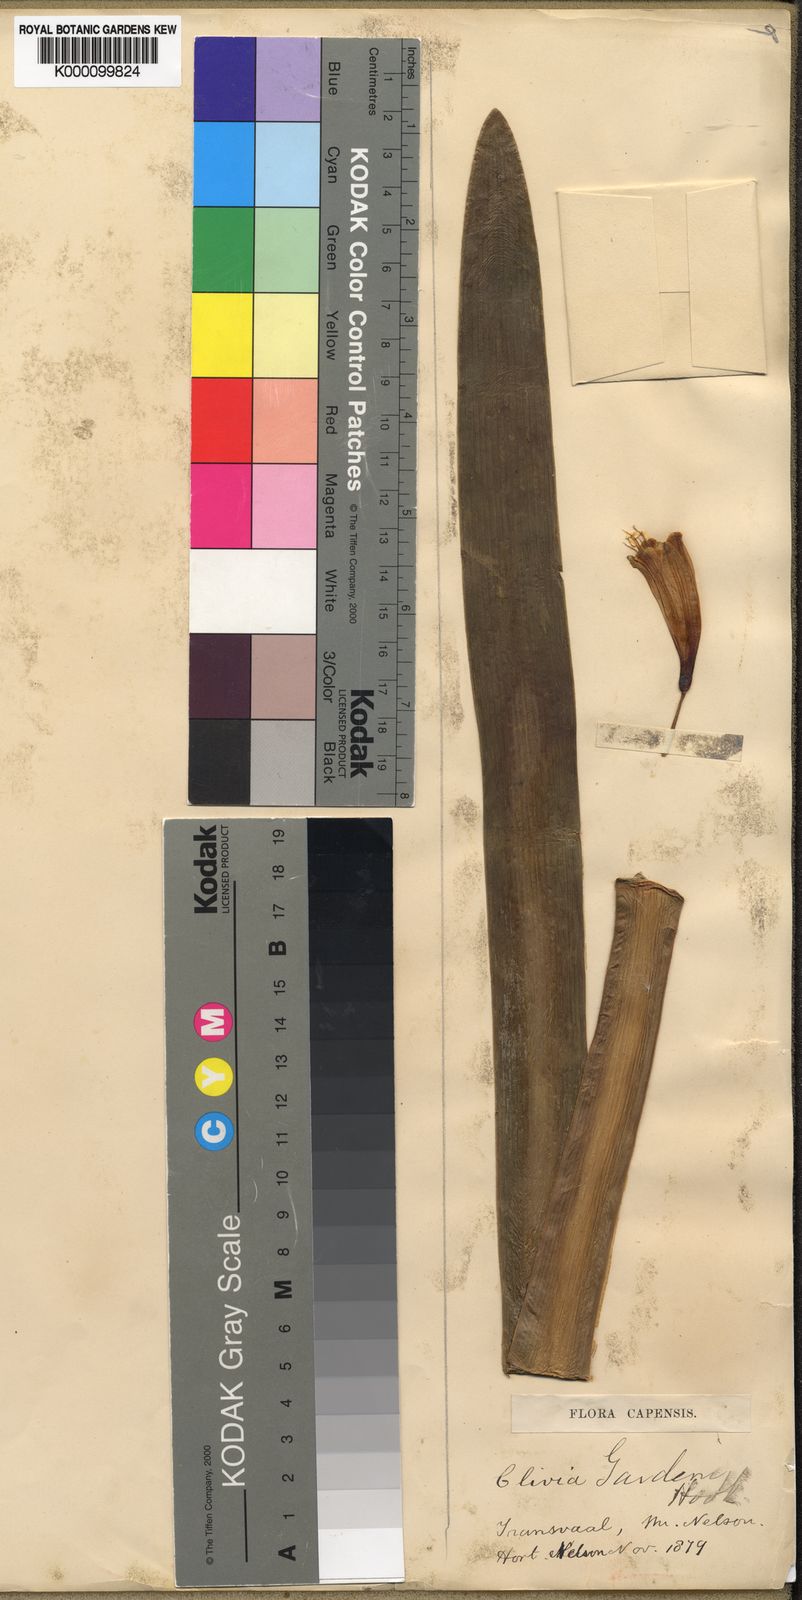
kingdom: Plantae
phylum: Tracheophyta
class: Liliopsida
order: Asparagales
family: Amaryllidaceae
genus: Clivia
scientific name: Clivia gardenii
